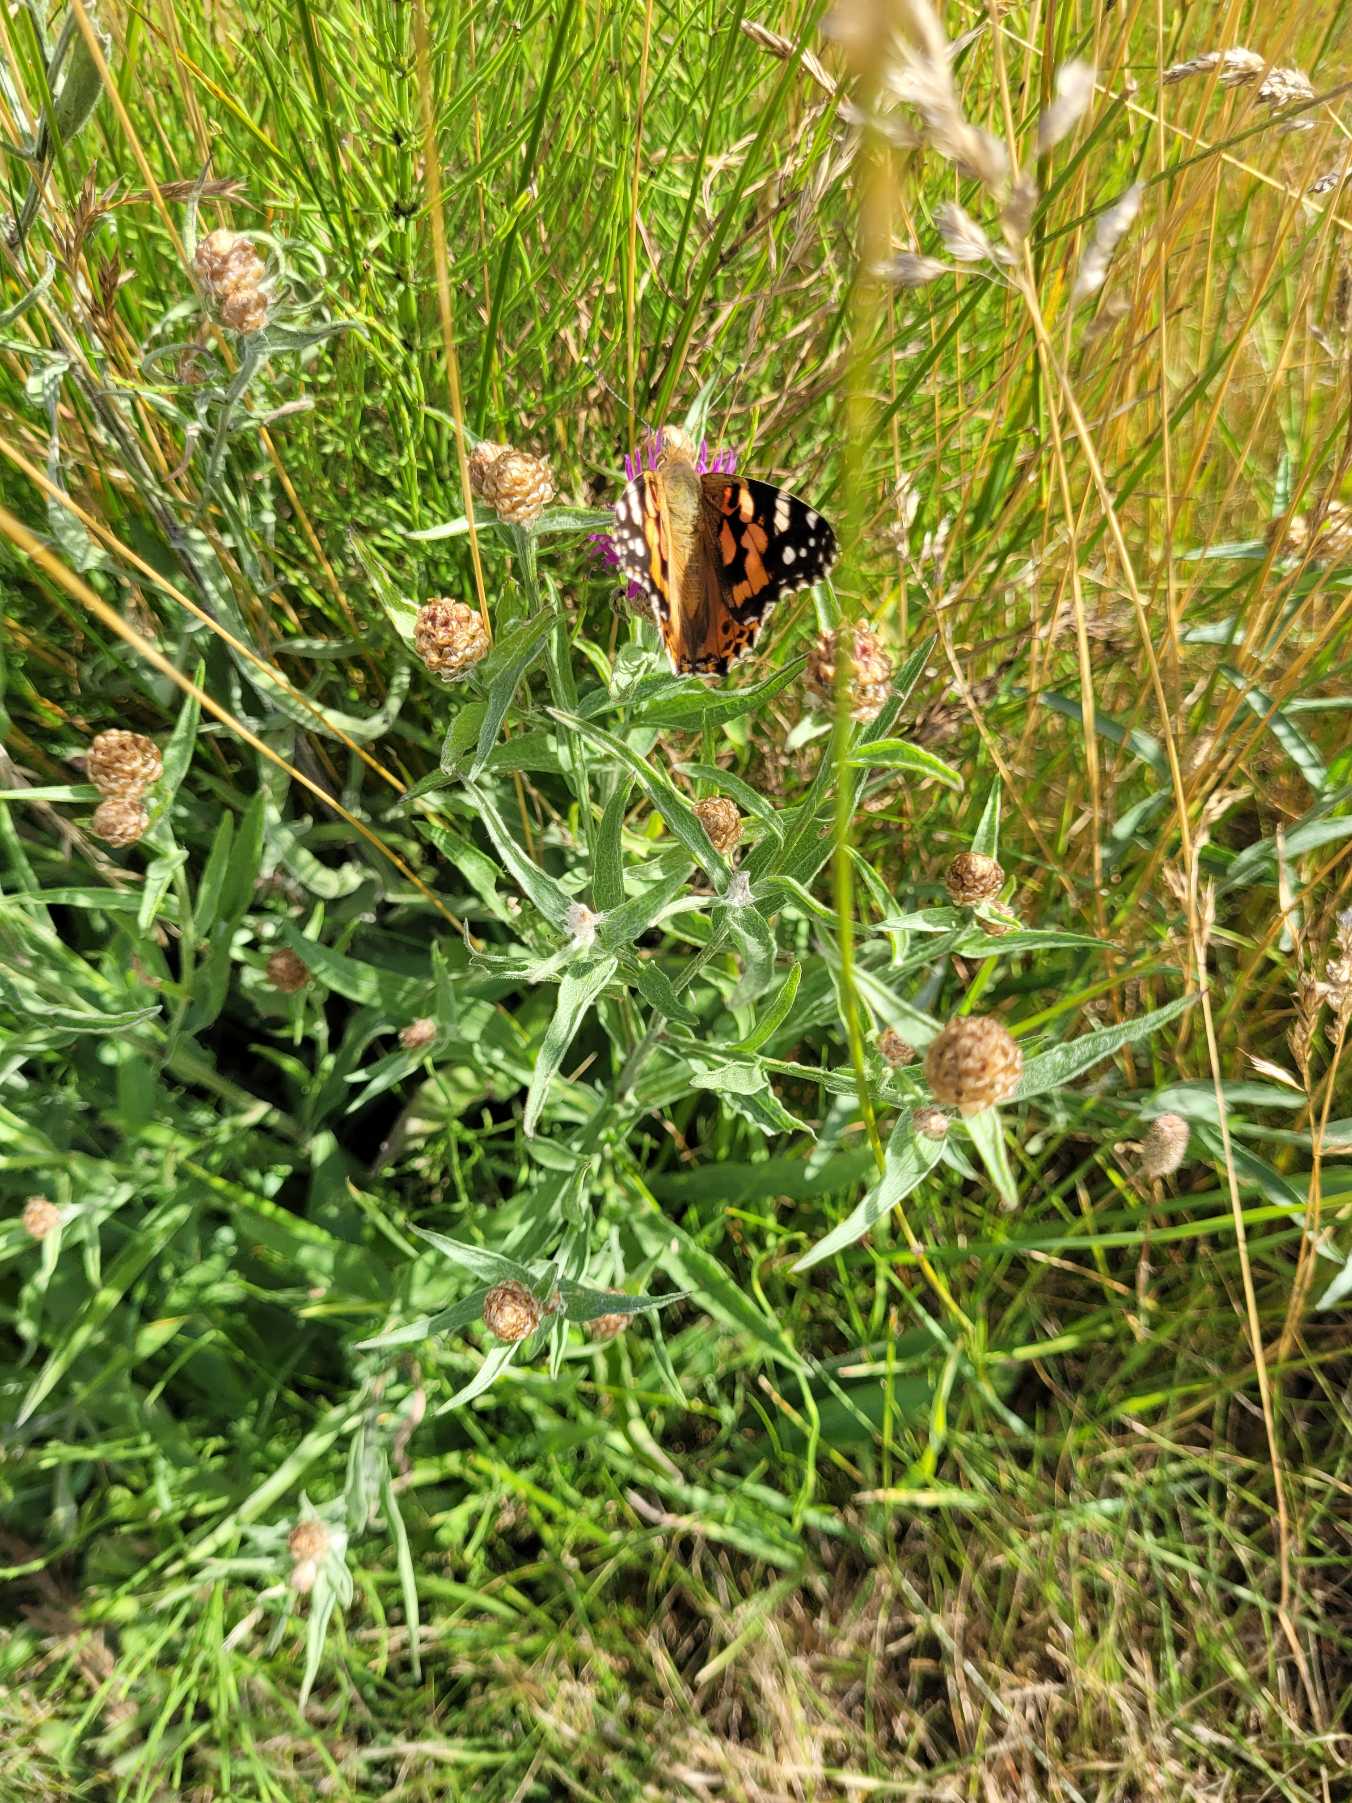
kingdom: Animalia
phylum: Arthropoda
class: Insecta
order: Lepidoptera
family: Nymphalidae
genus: Vanessa
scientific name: Vanessa cardui
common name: Tidselsommerfugl
